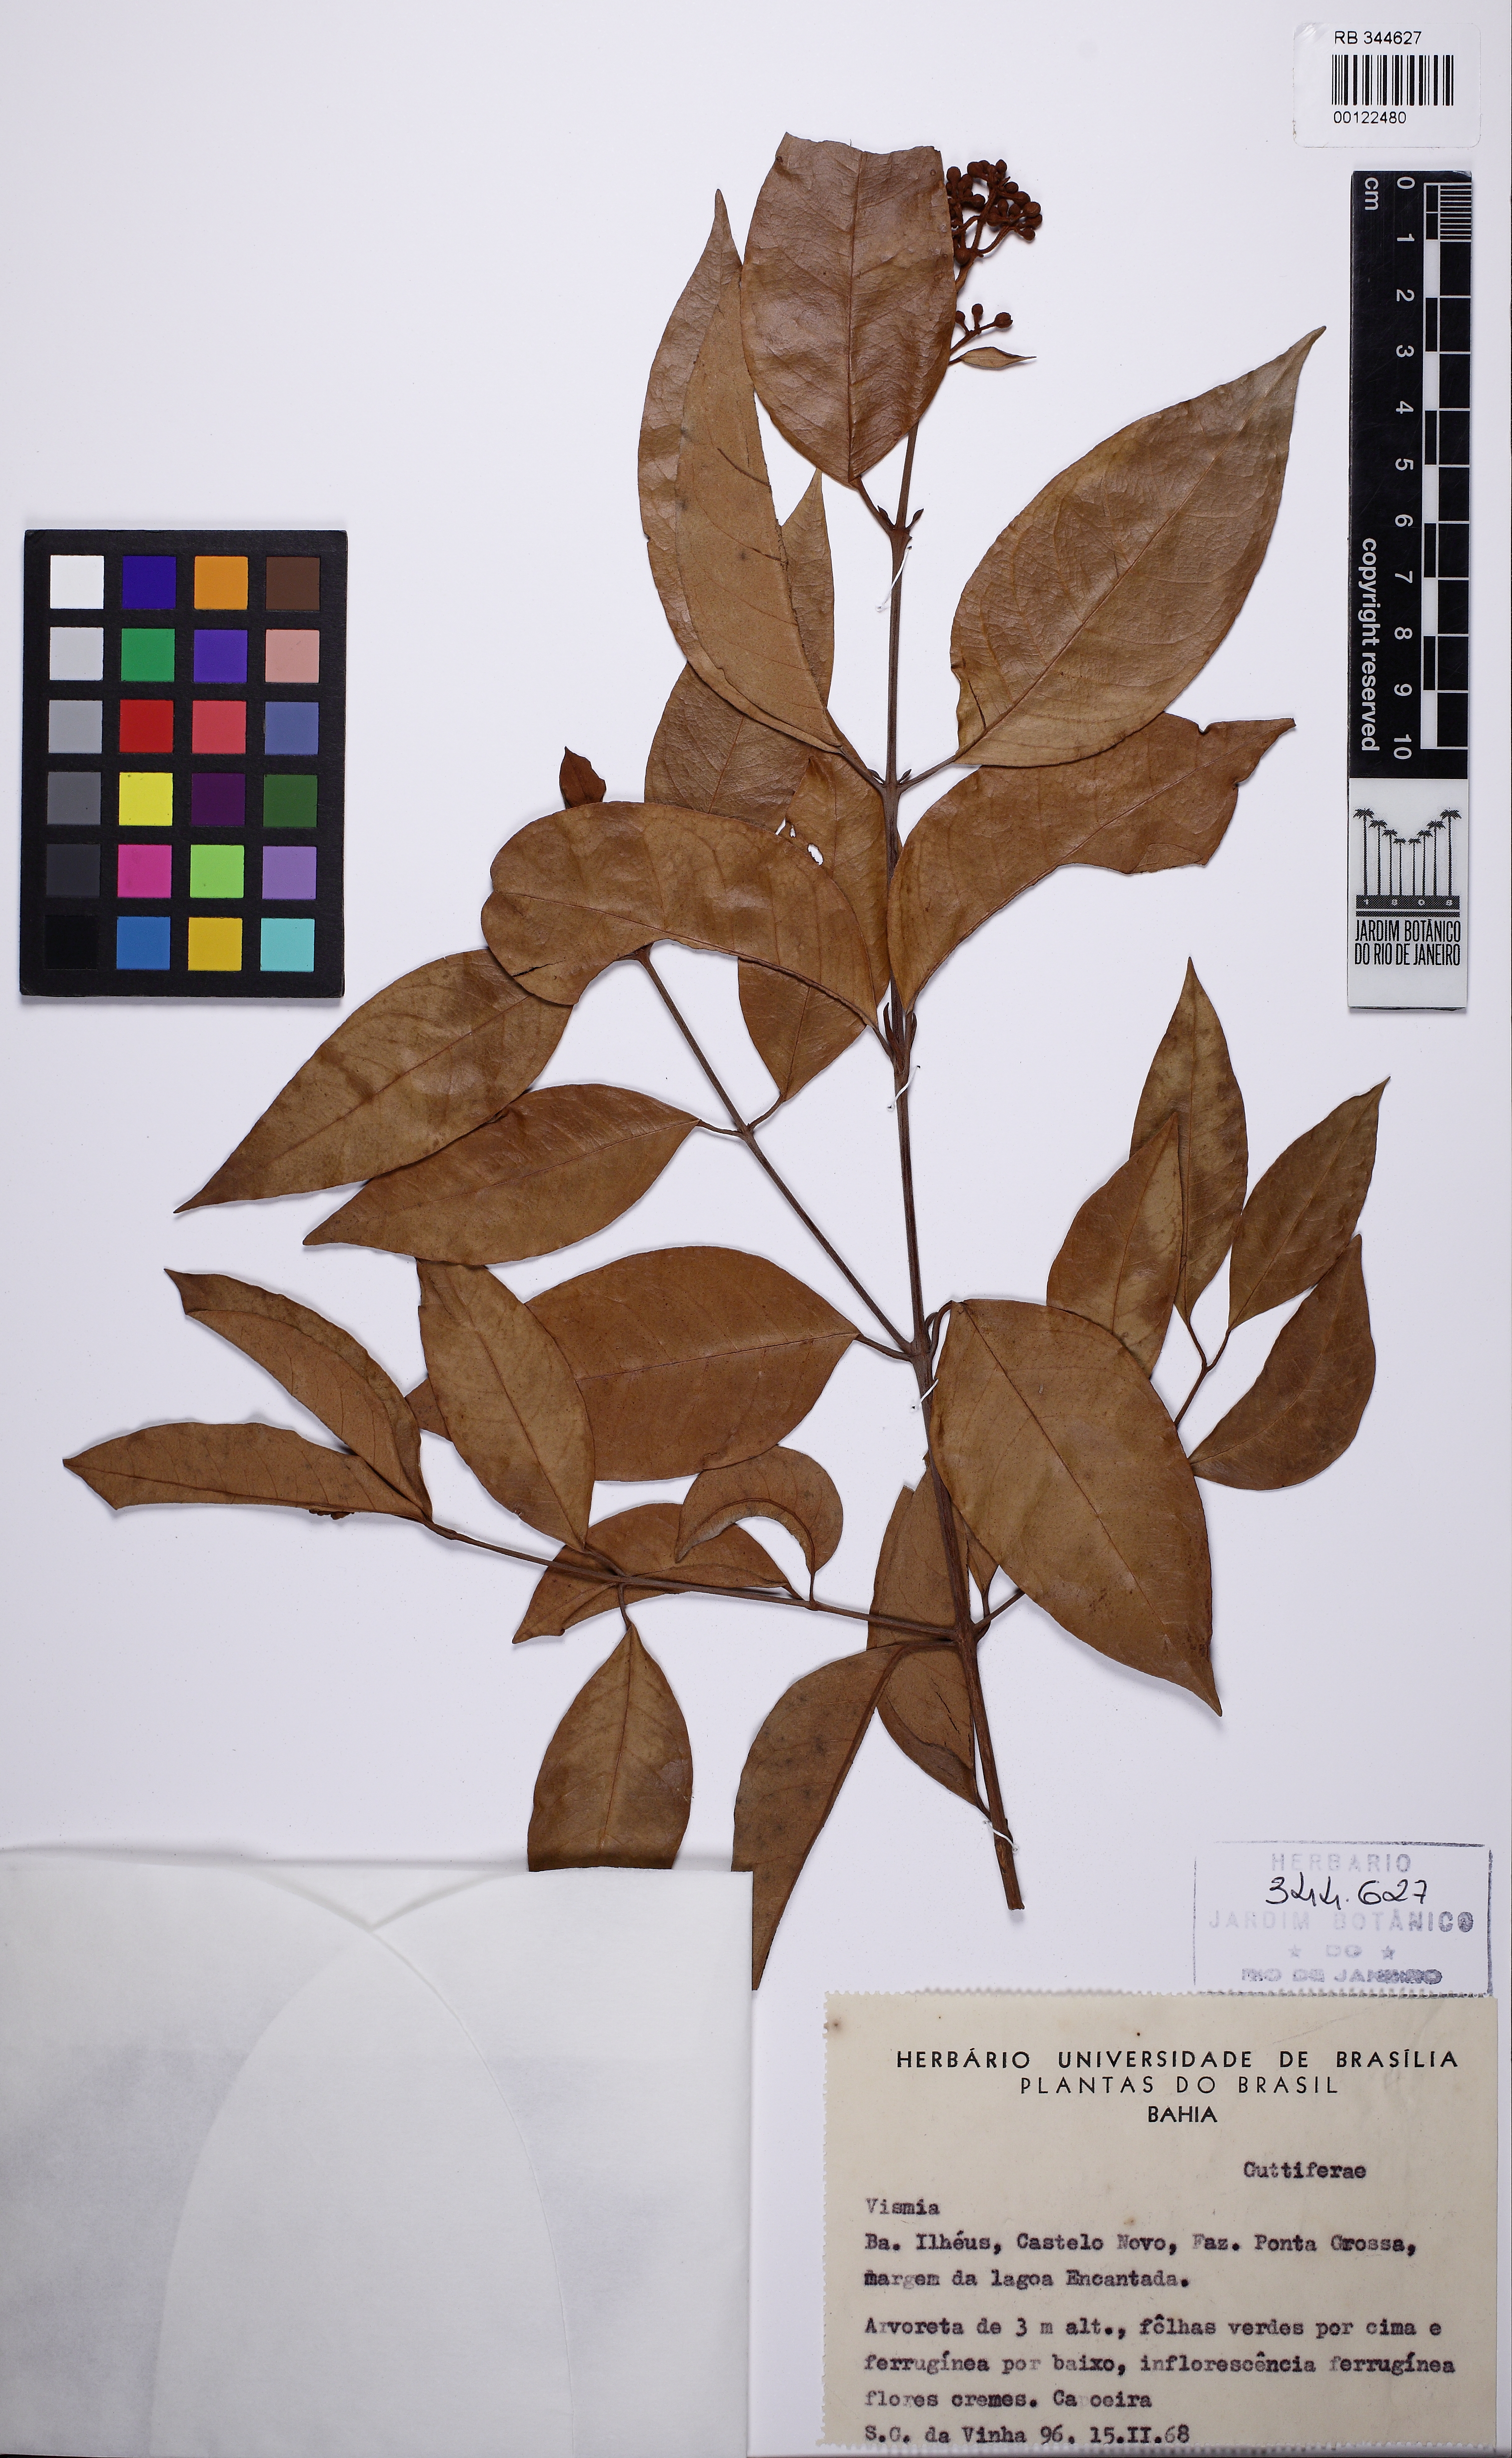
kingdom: Plantae
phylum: Tracheophyta
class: Magnoliopsida
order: Malpighiales
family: Hypericaceae
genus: Vismia
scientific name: Vismia guianensis
